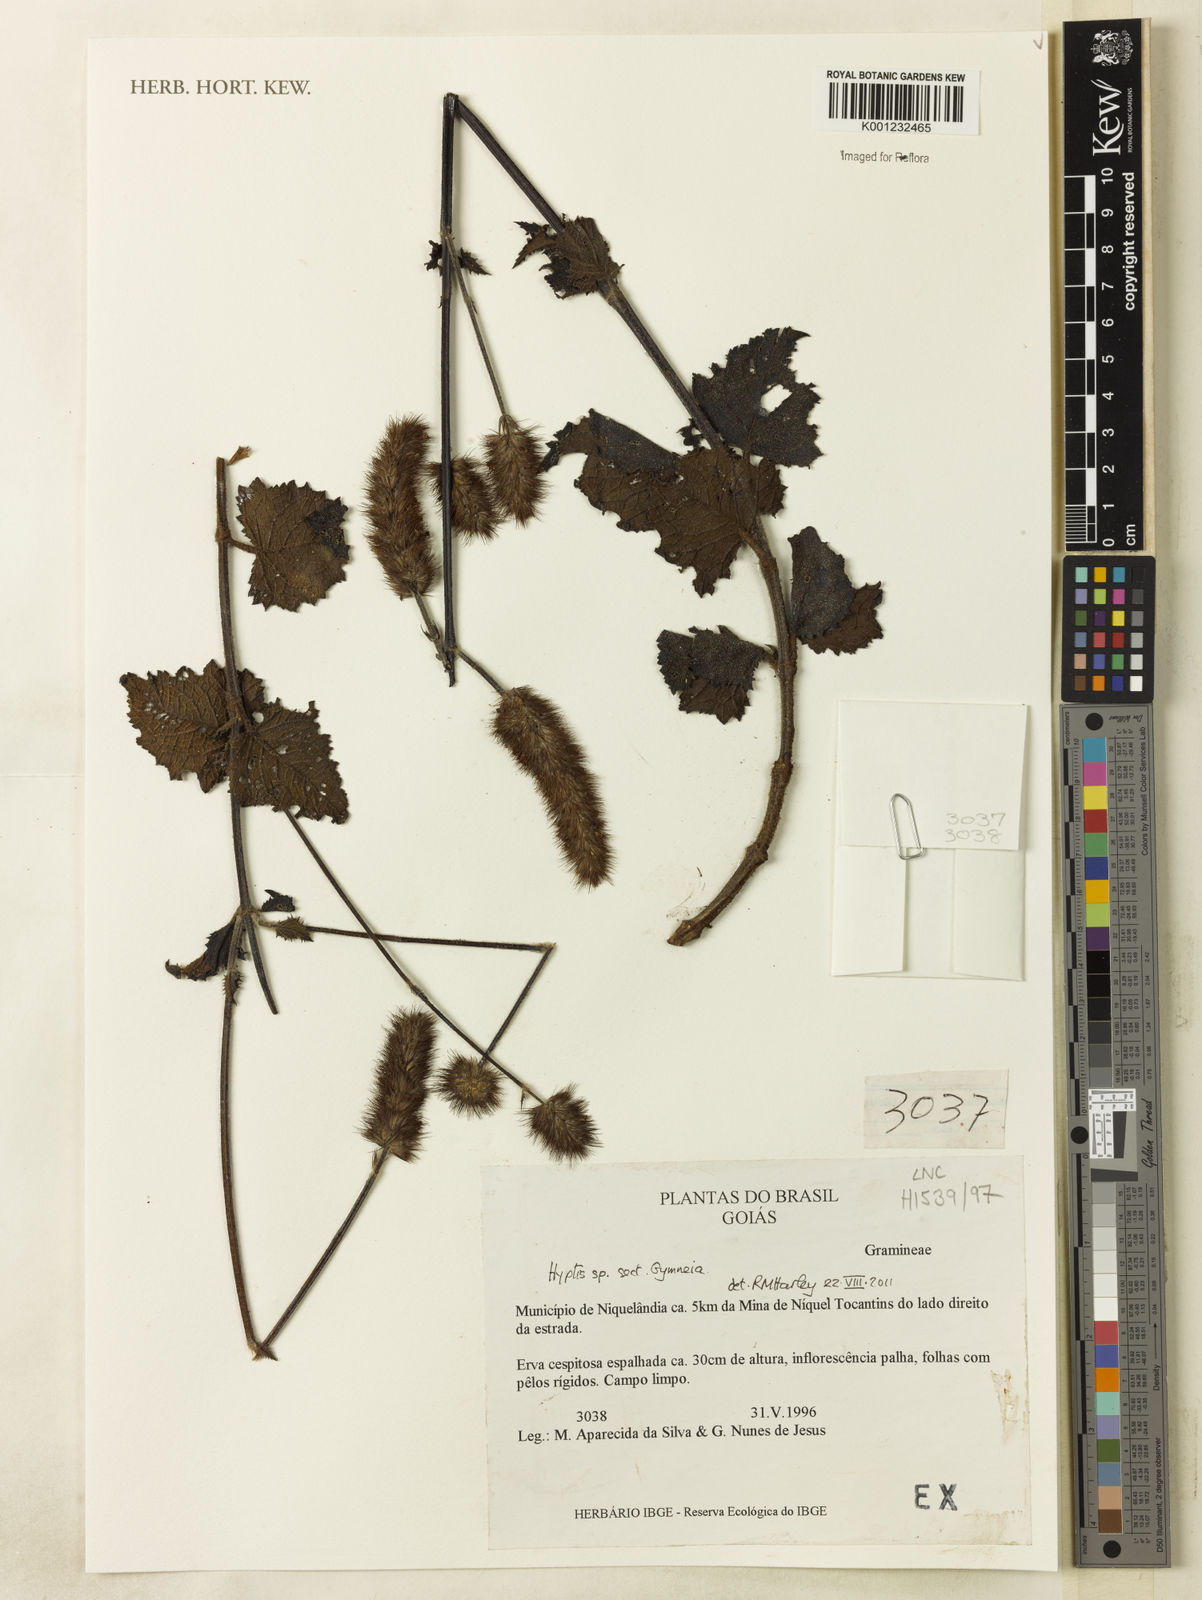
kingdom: Plantae
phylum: Tracheophyta
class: Magnoliopsida
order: Lamiales
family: Lamiaceae
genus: Gymneia
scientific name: Gymneia
